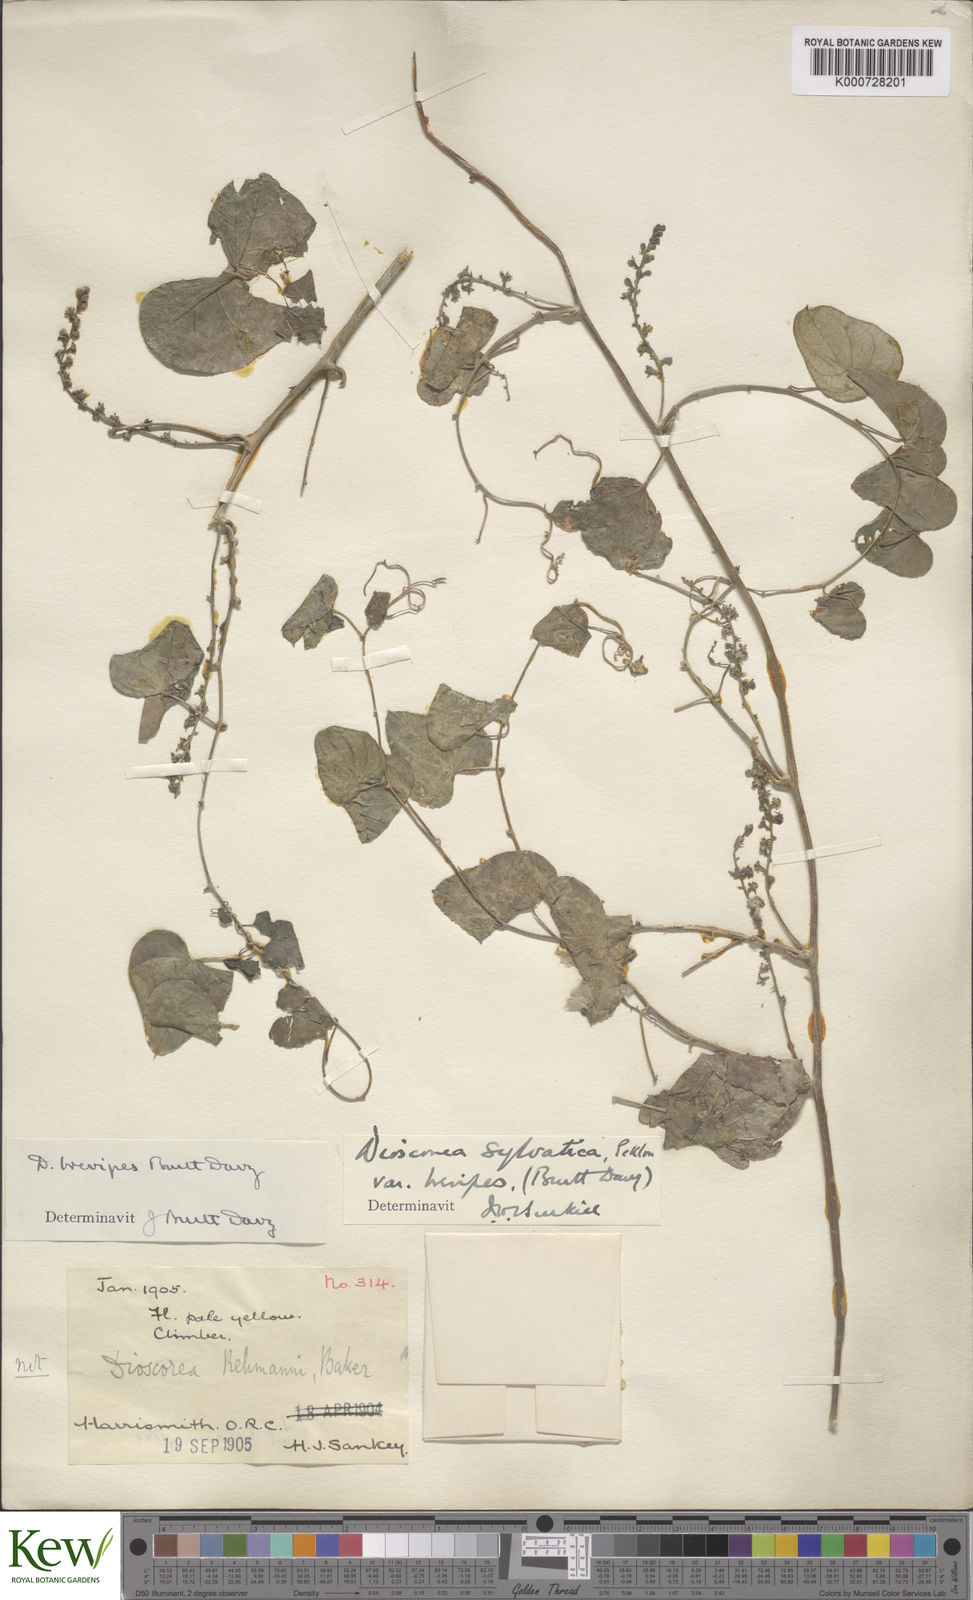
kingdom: Plantae
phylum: Tracheophyta
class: Liliopsida
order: Dioscoreales
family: Dioscoreaceae
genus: Dioscorea
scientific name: Dioscorea sylvatica
